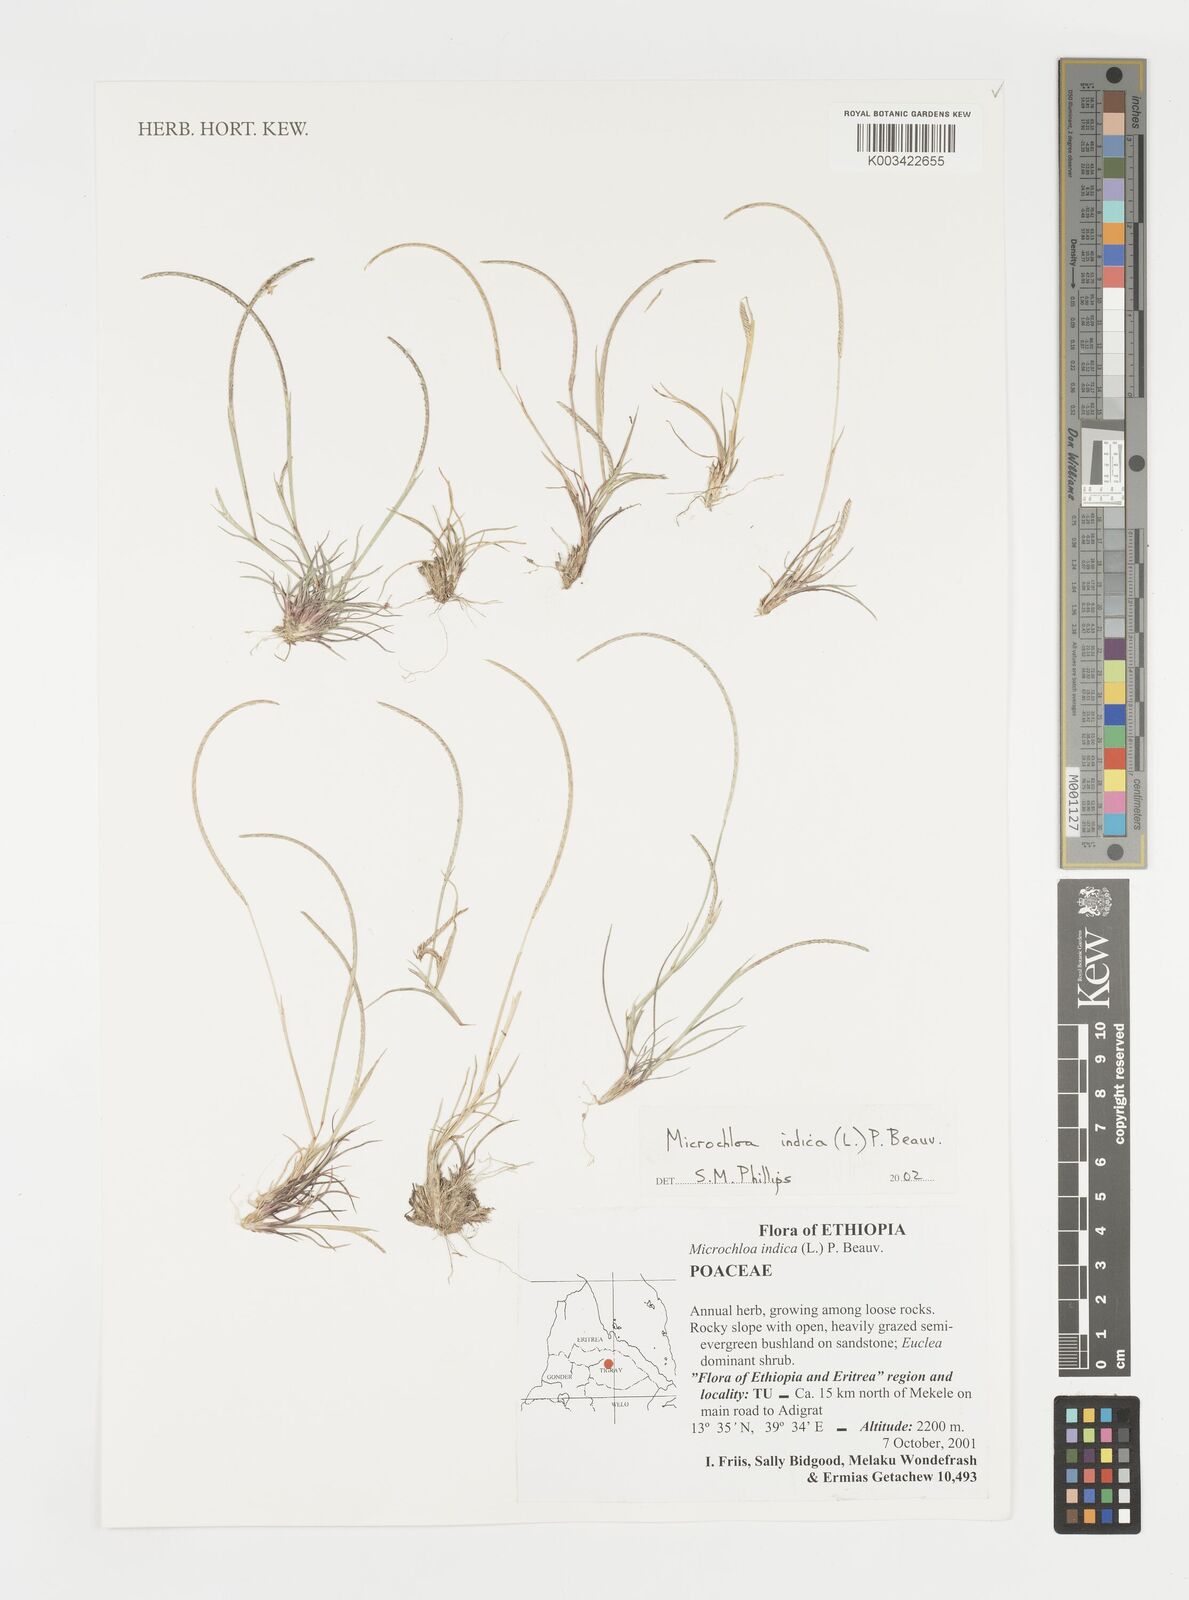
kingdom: Plantae
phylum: Tracheophyta
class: Liliopsida
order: Poales
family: Poaceae
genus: Microchloa
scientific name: Microchloa indica
